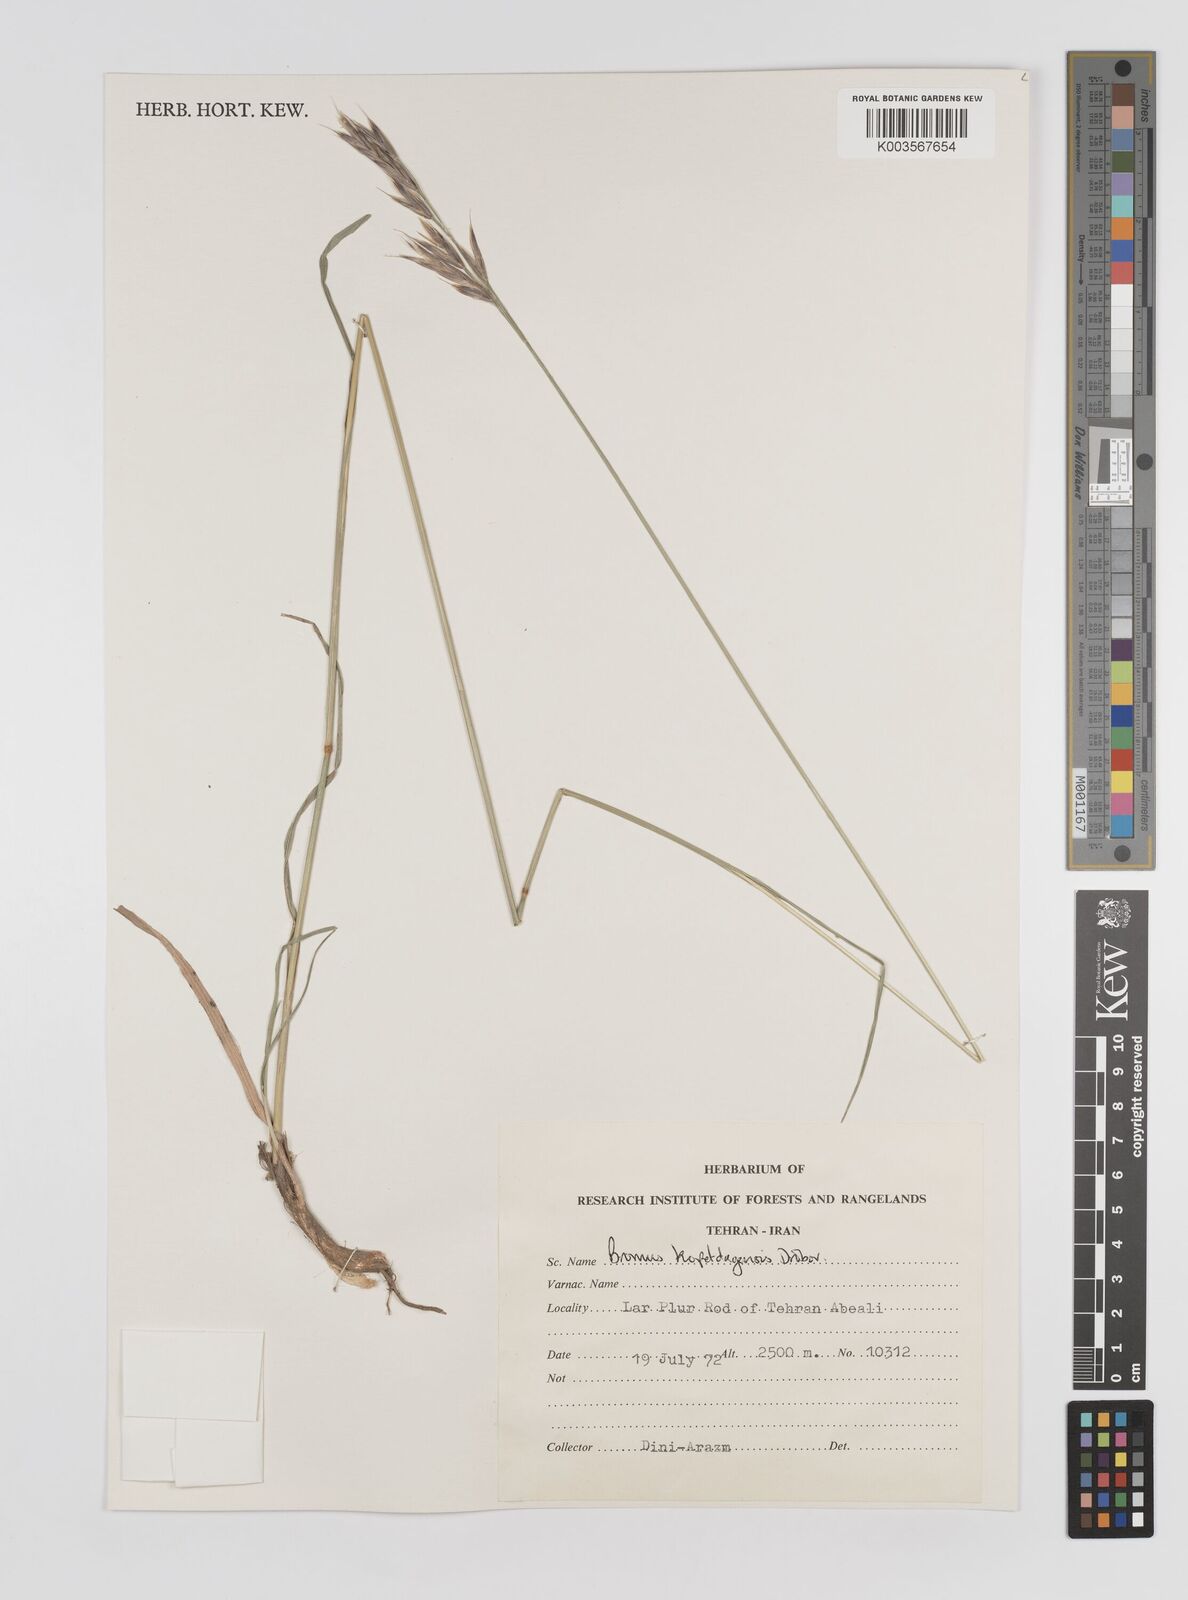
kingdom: Plantae
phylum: Tracheophyta
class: Liliopsida
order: Poales
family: Poaceae
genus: Bromus
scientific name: Bromus kopetdagensis
